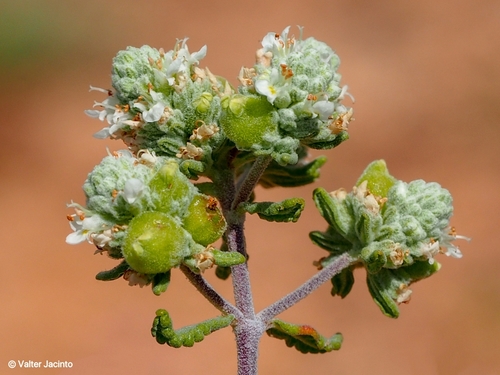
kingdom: Plantae
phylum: Tracheophyta
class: Magnoliopsida
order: Lamiales
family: Lamiaceae
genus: Teucrium
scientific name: Teucrium capitatum
